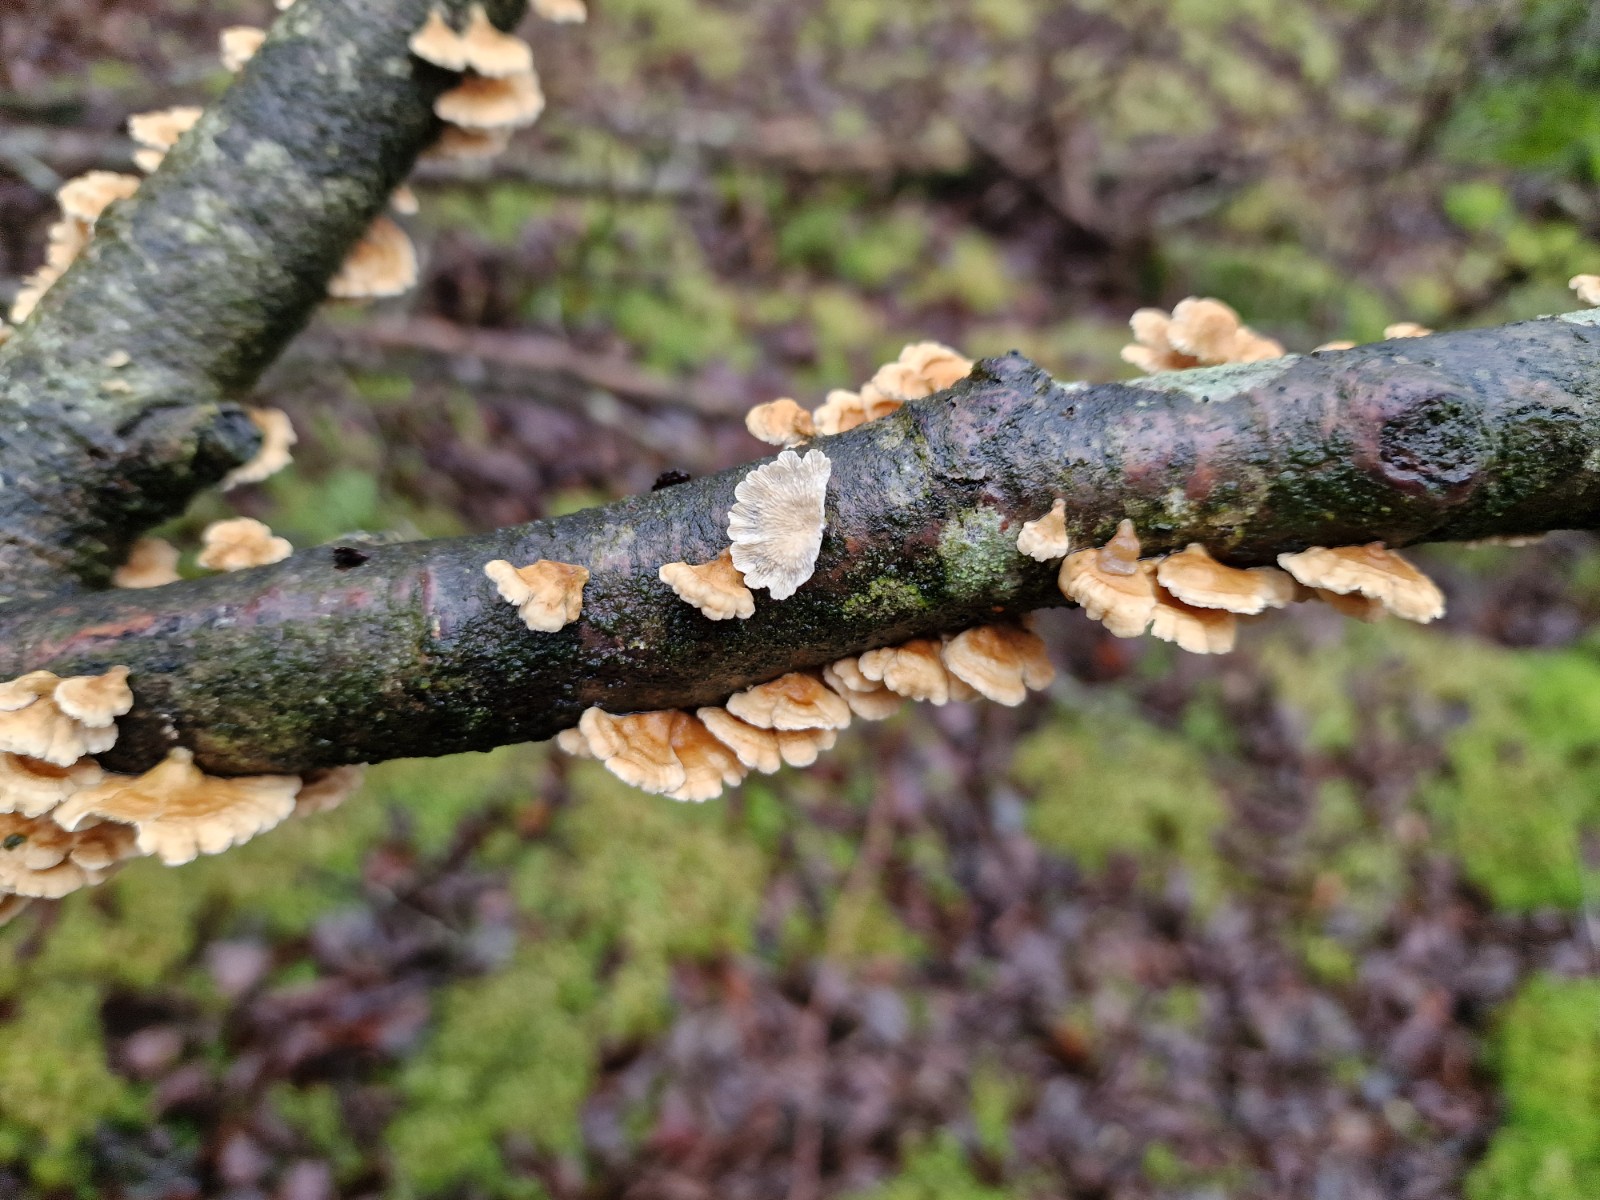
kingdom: Fungi
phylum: Basidiomycota
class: Agaricomycetes
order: Amylocorticiales
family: Amylocorticiaceae
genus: Plicaturopsis
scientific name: Plicaturopsis crispa
